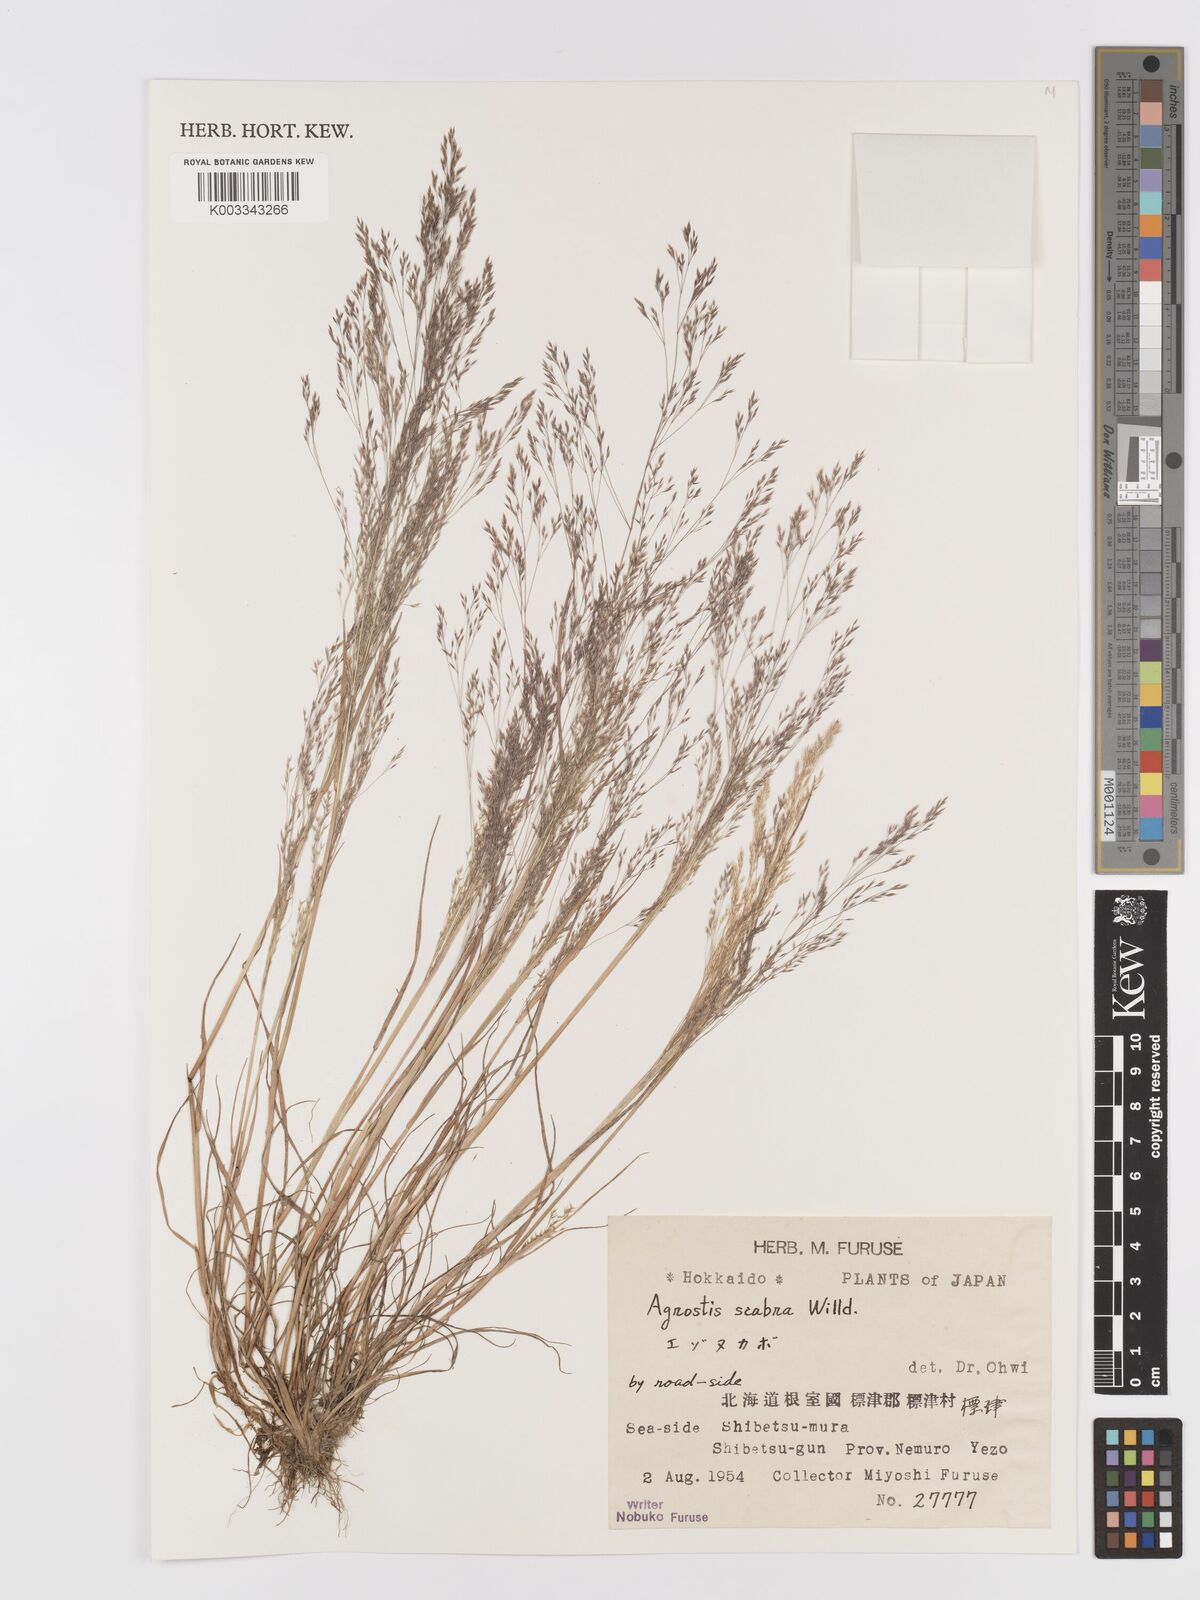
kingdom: Plantae
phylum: Tracheophyta
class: Liliopsida
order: Poales
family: Poaceae
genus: Agrostis
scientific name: Agrostis scabra
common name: Rough bent
